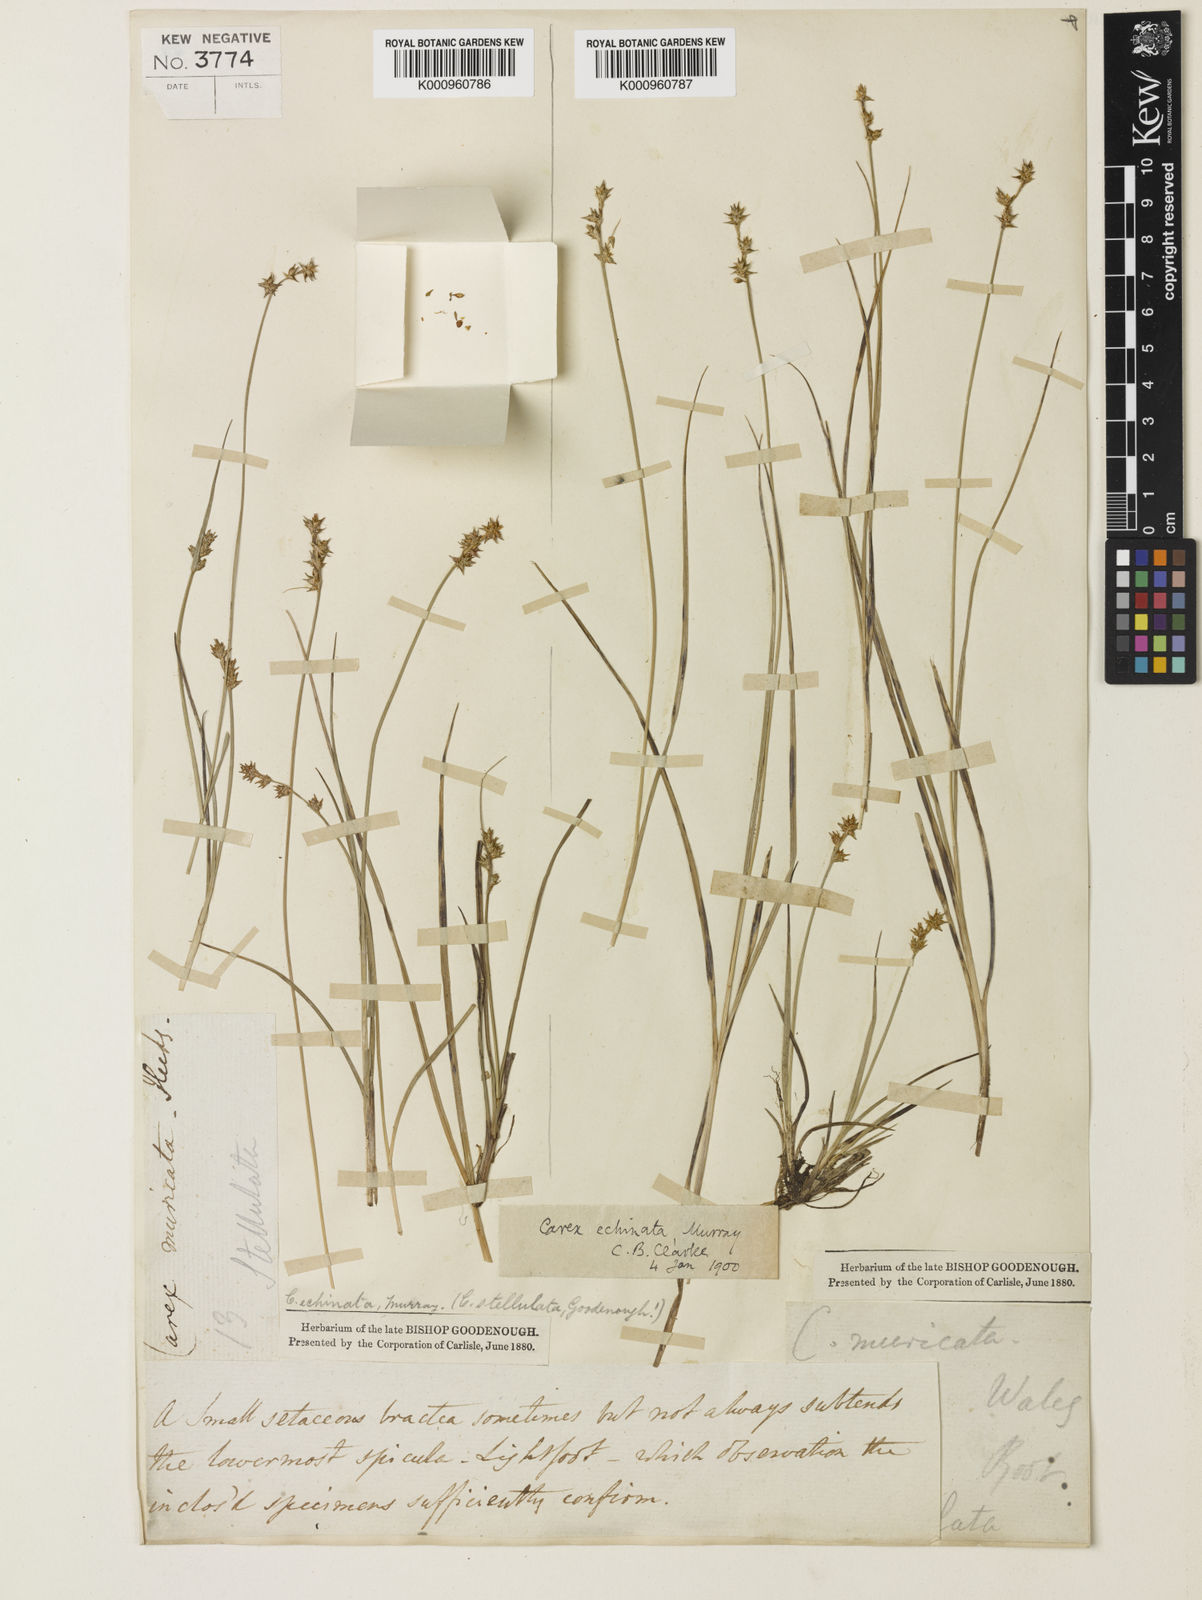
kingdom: Plantae
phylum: Tracheophyta
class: Liliopsida
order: Poales
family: Cyperaceae
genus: Carex
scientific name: Carex echinata
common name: Star sedge
